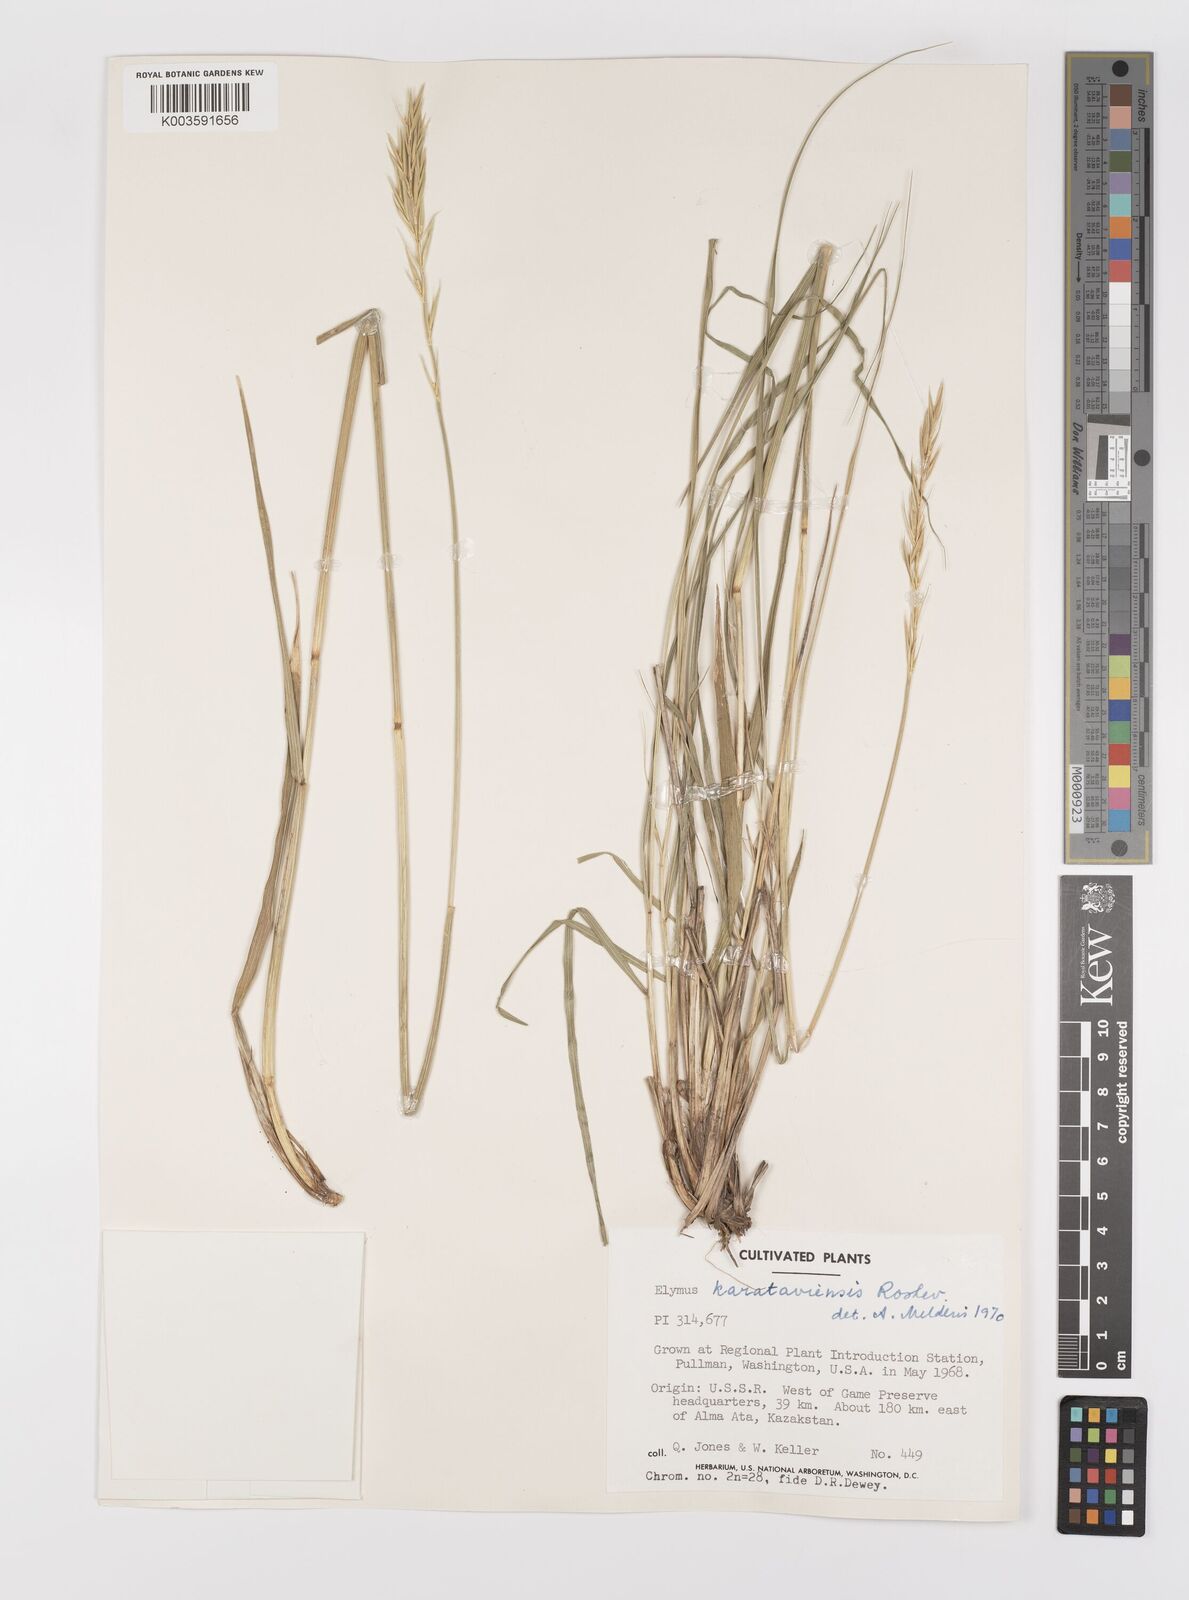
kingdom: Plantae
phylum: Tracheophyta
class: Liliopsida
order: Poales
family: Poaceae
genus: Leymus
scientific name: Leymus alaicus
